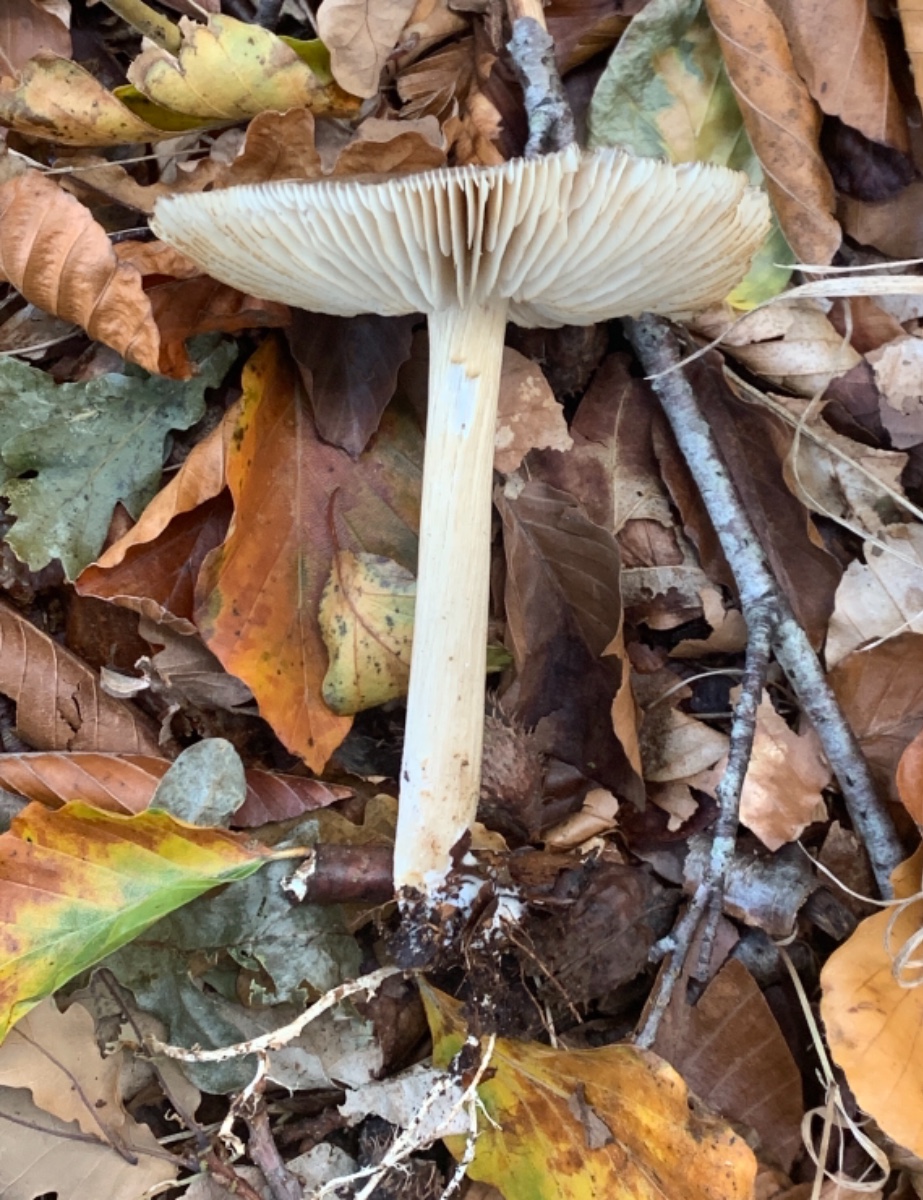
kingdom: Fungi
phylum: Basidiomycota
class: Agaricomycetes
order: Agaricales
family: Tricholomataceae
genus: Megacollybia
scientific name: Megacollybia platyphylla
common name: bredbladet væbnerhat
